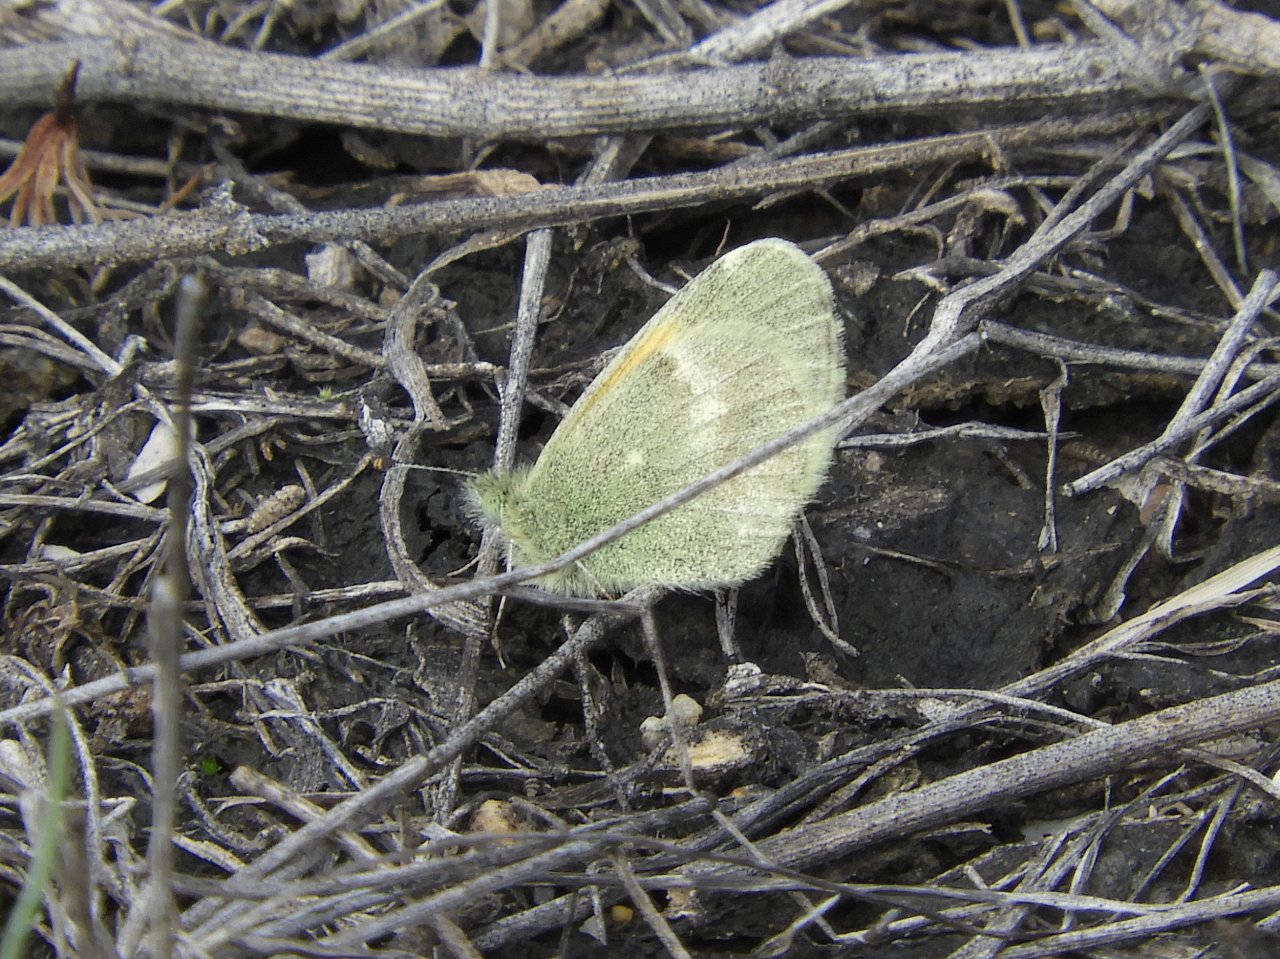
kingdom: Animalia
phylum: Arthropoda
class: Insecta
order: Lepidoptera
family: Pieridae
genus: Nathalis
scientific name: Nathalis iole
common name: Dainty Sulphur
